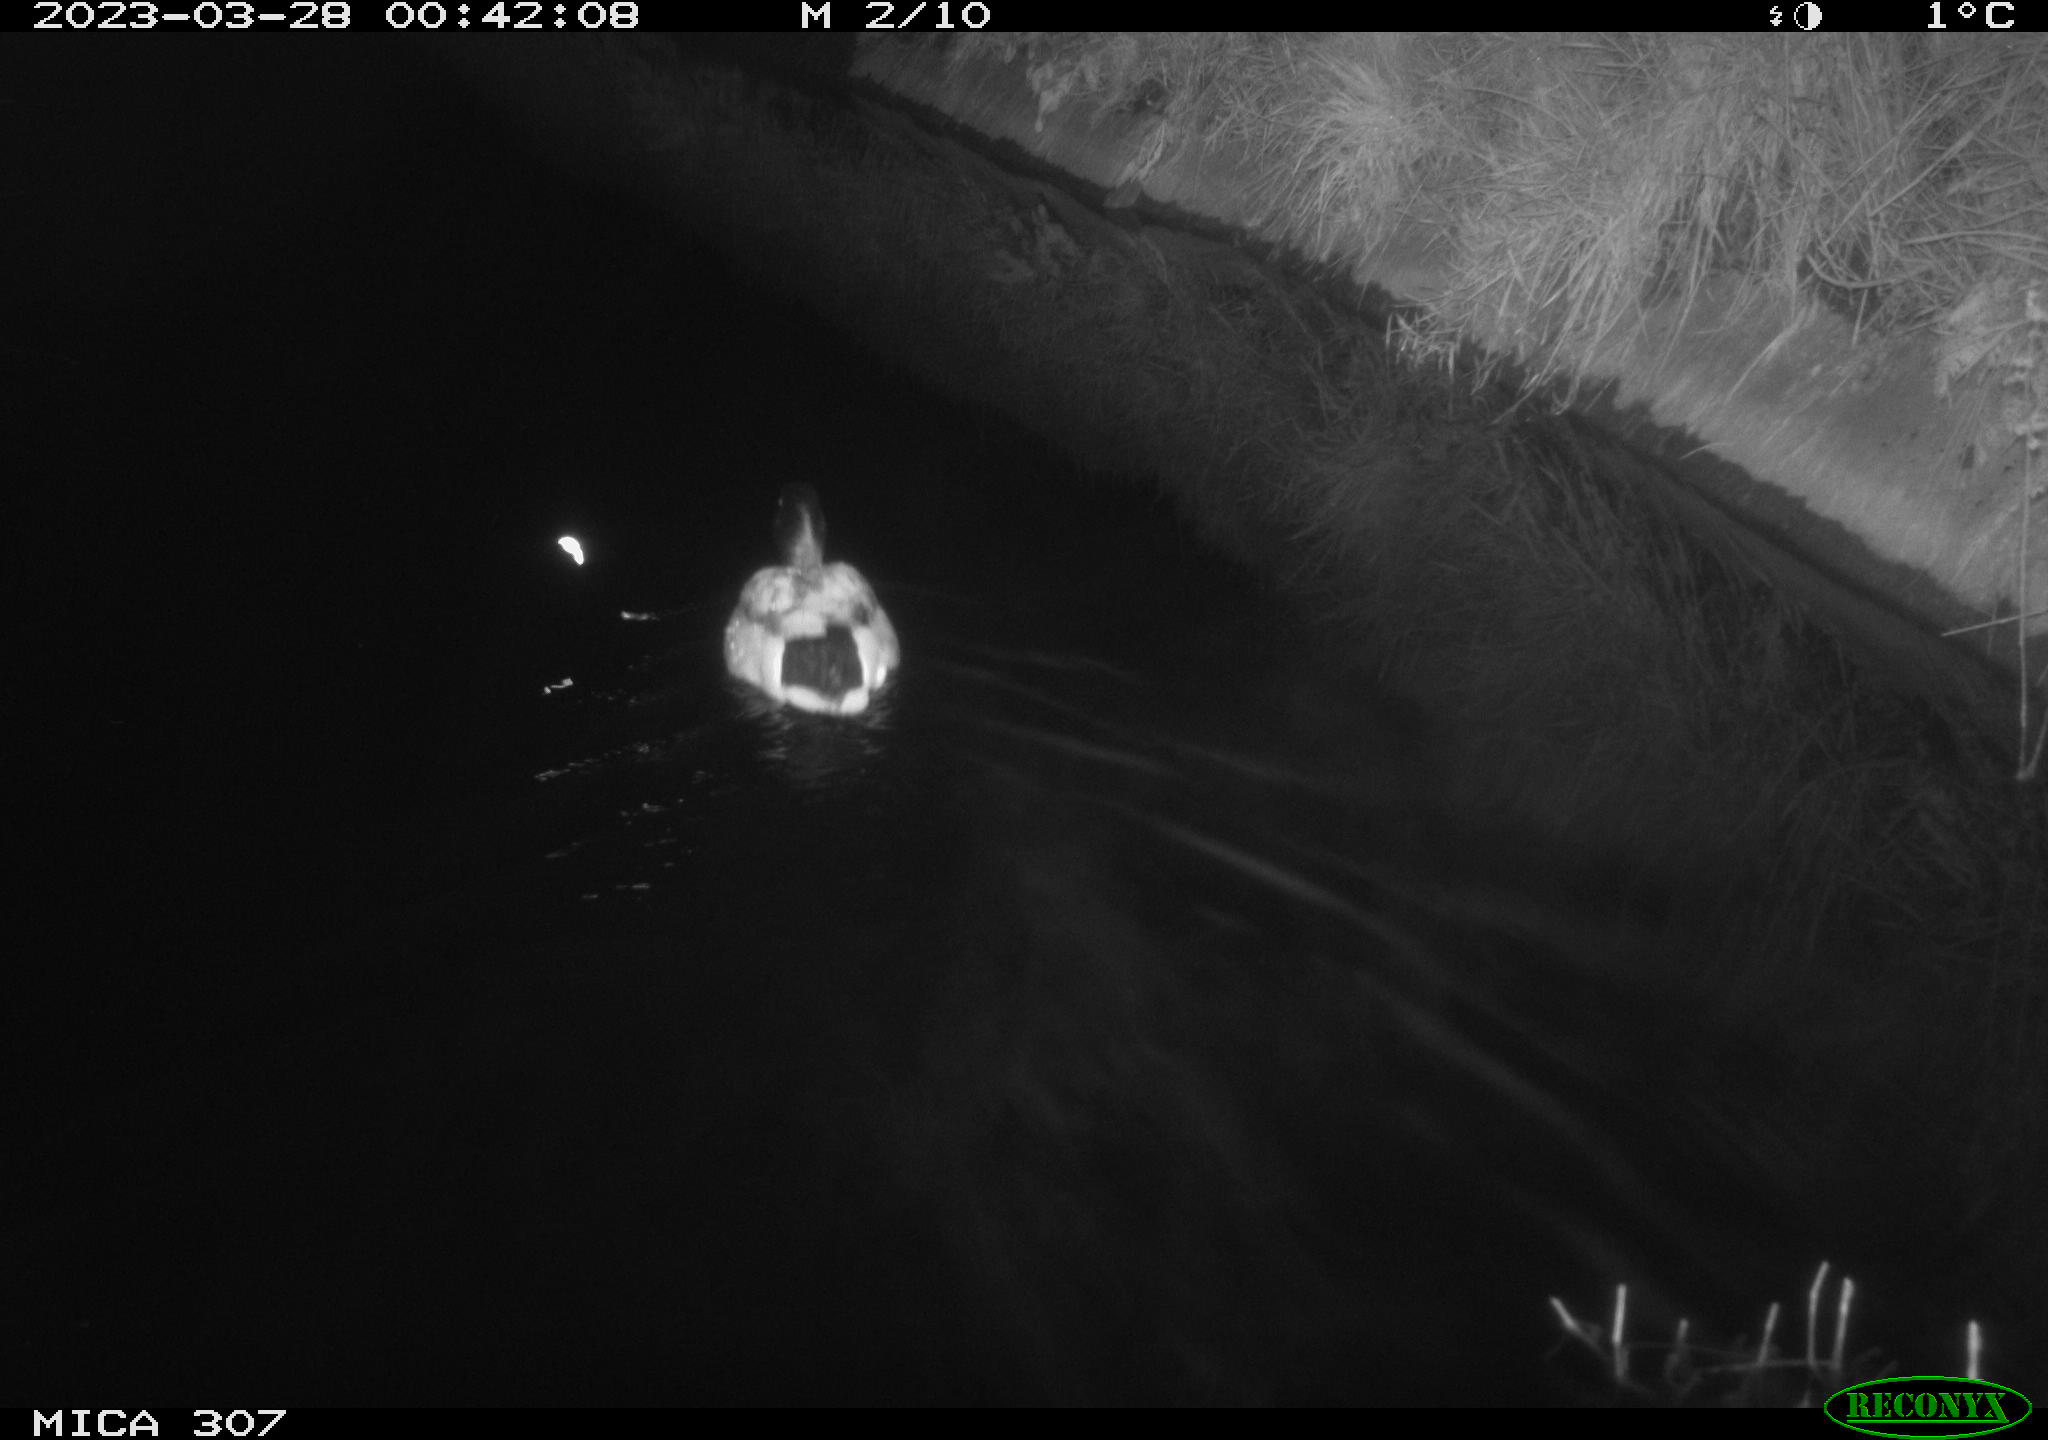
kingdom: Animalia
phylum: Chordata
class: Aves
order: Anseriformes
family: Anatidae
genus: Anas
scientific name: Anas
